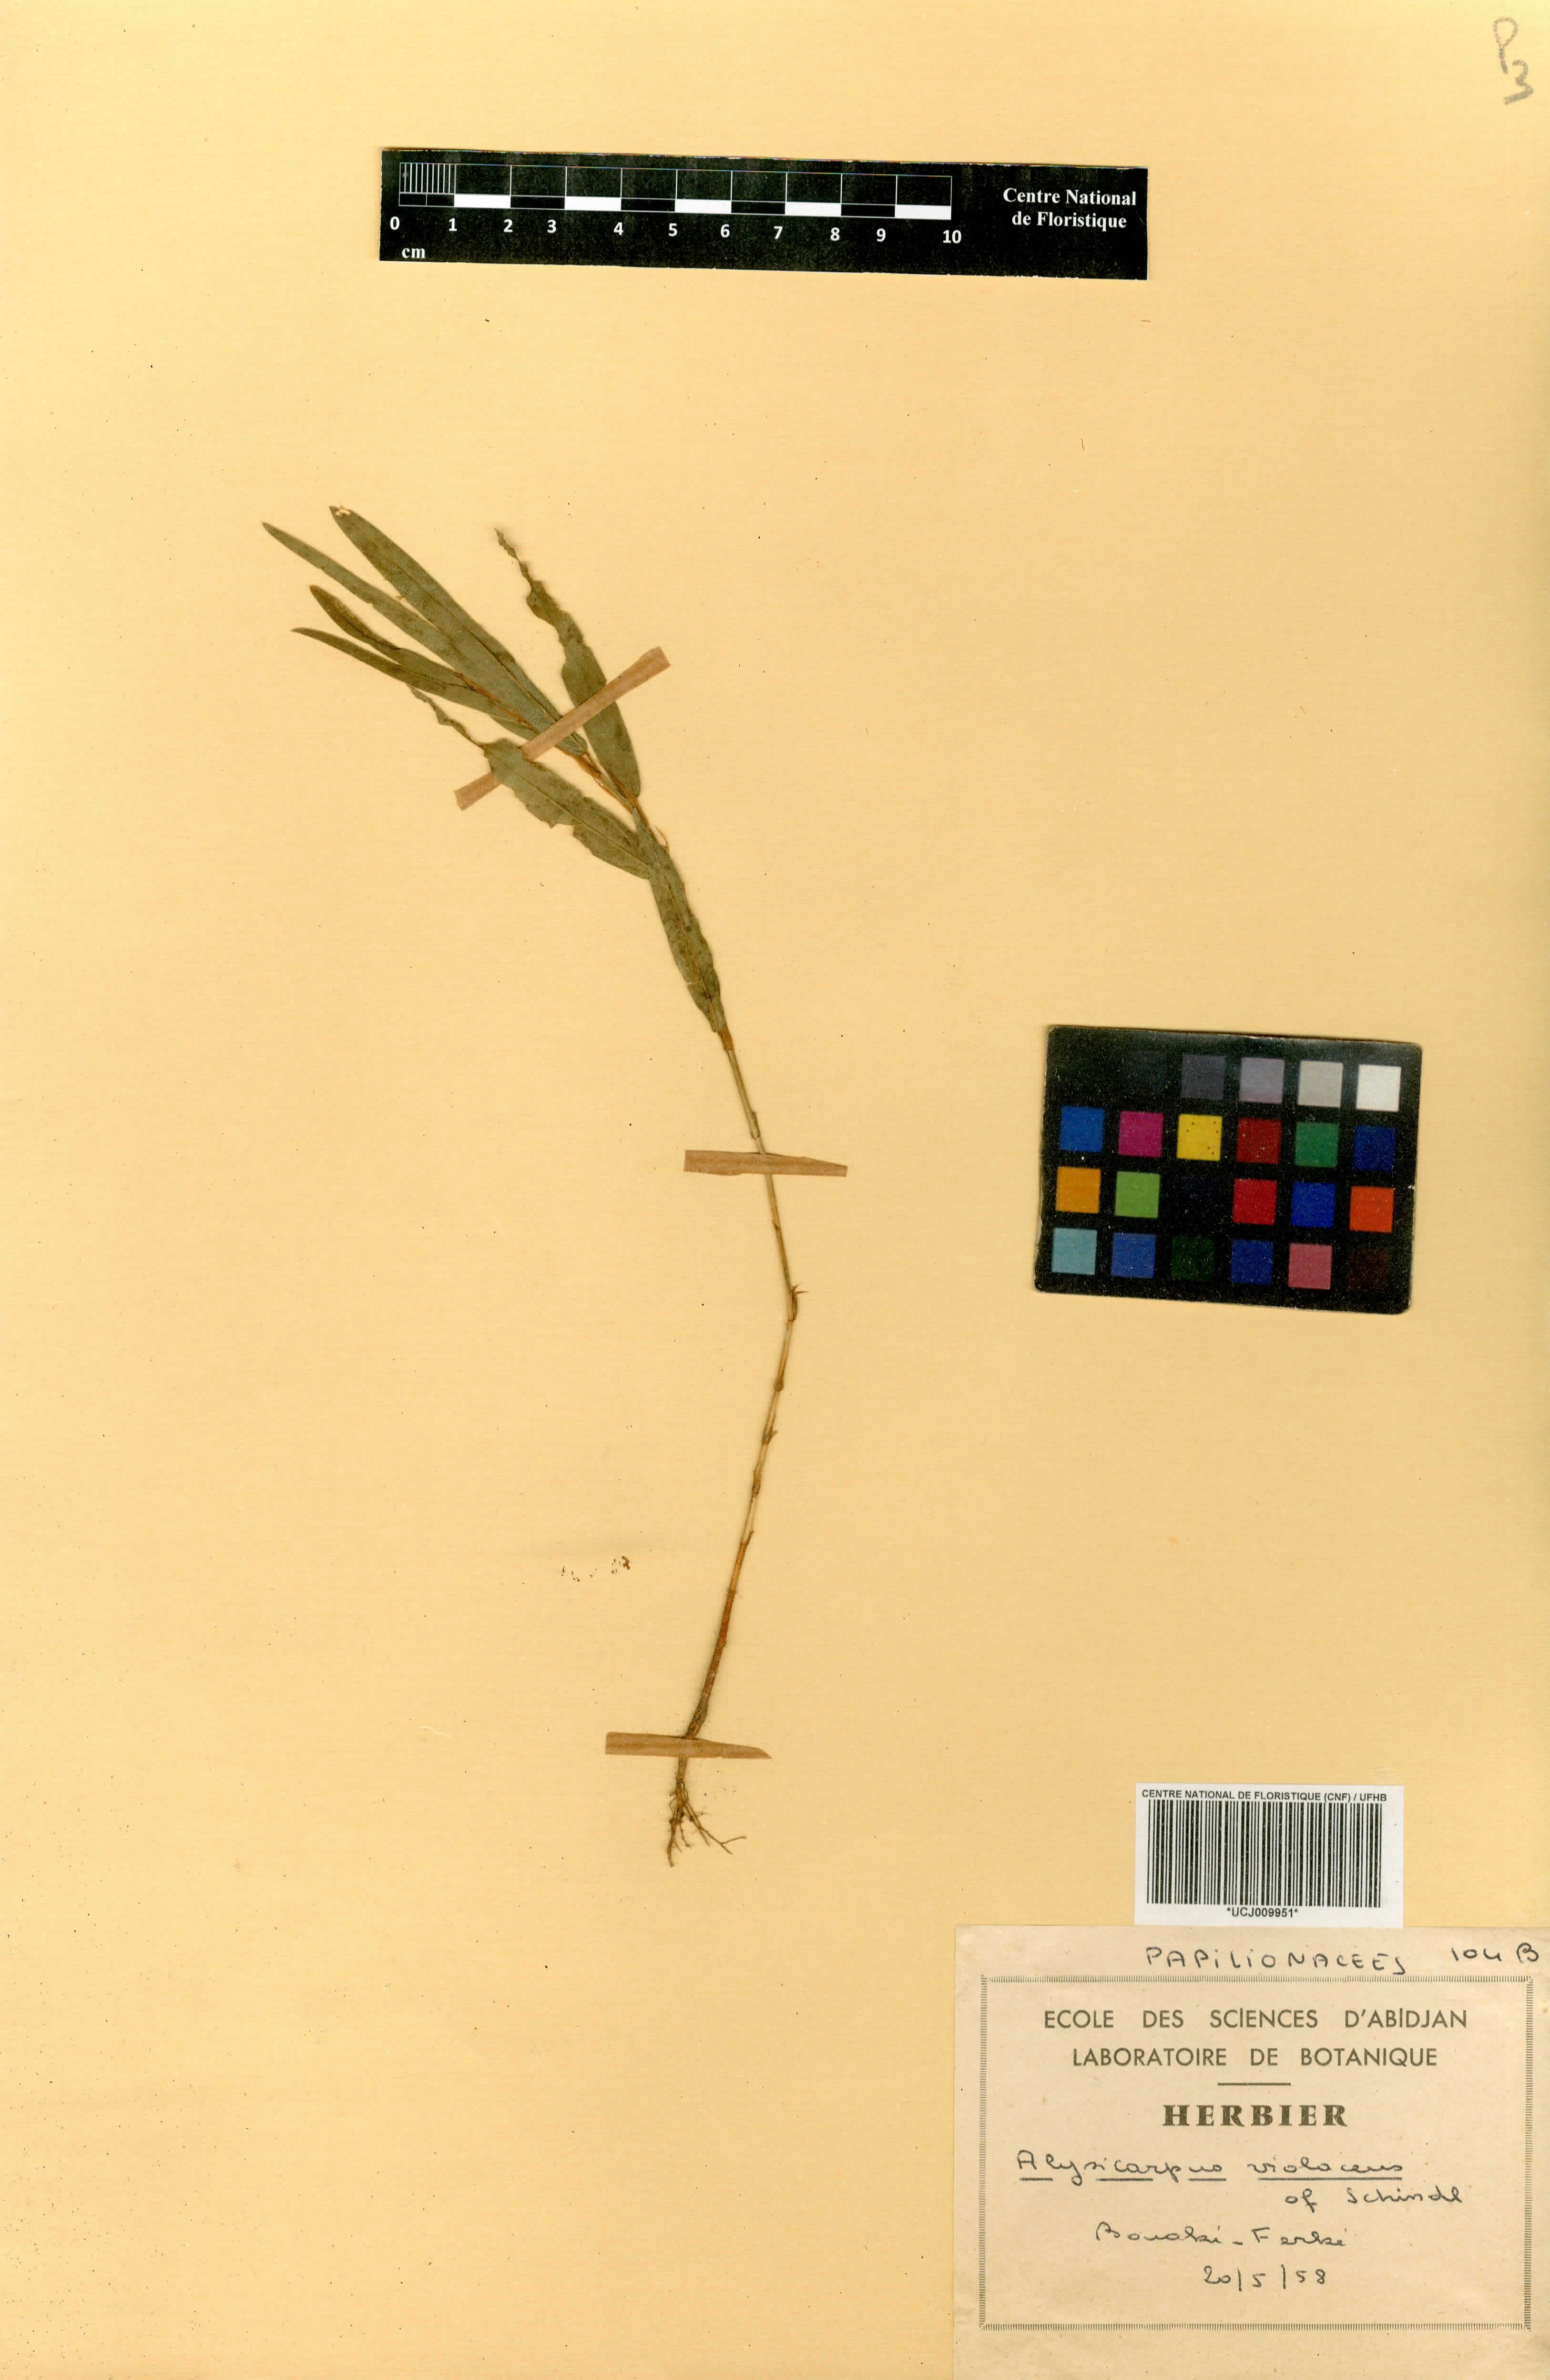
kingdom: Plantae
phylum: Tracheophyta
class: Magnoliopsida
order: Fabales
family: Fabaceae
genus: Alysicarpus
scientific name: Alysicarpus
